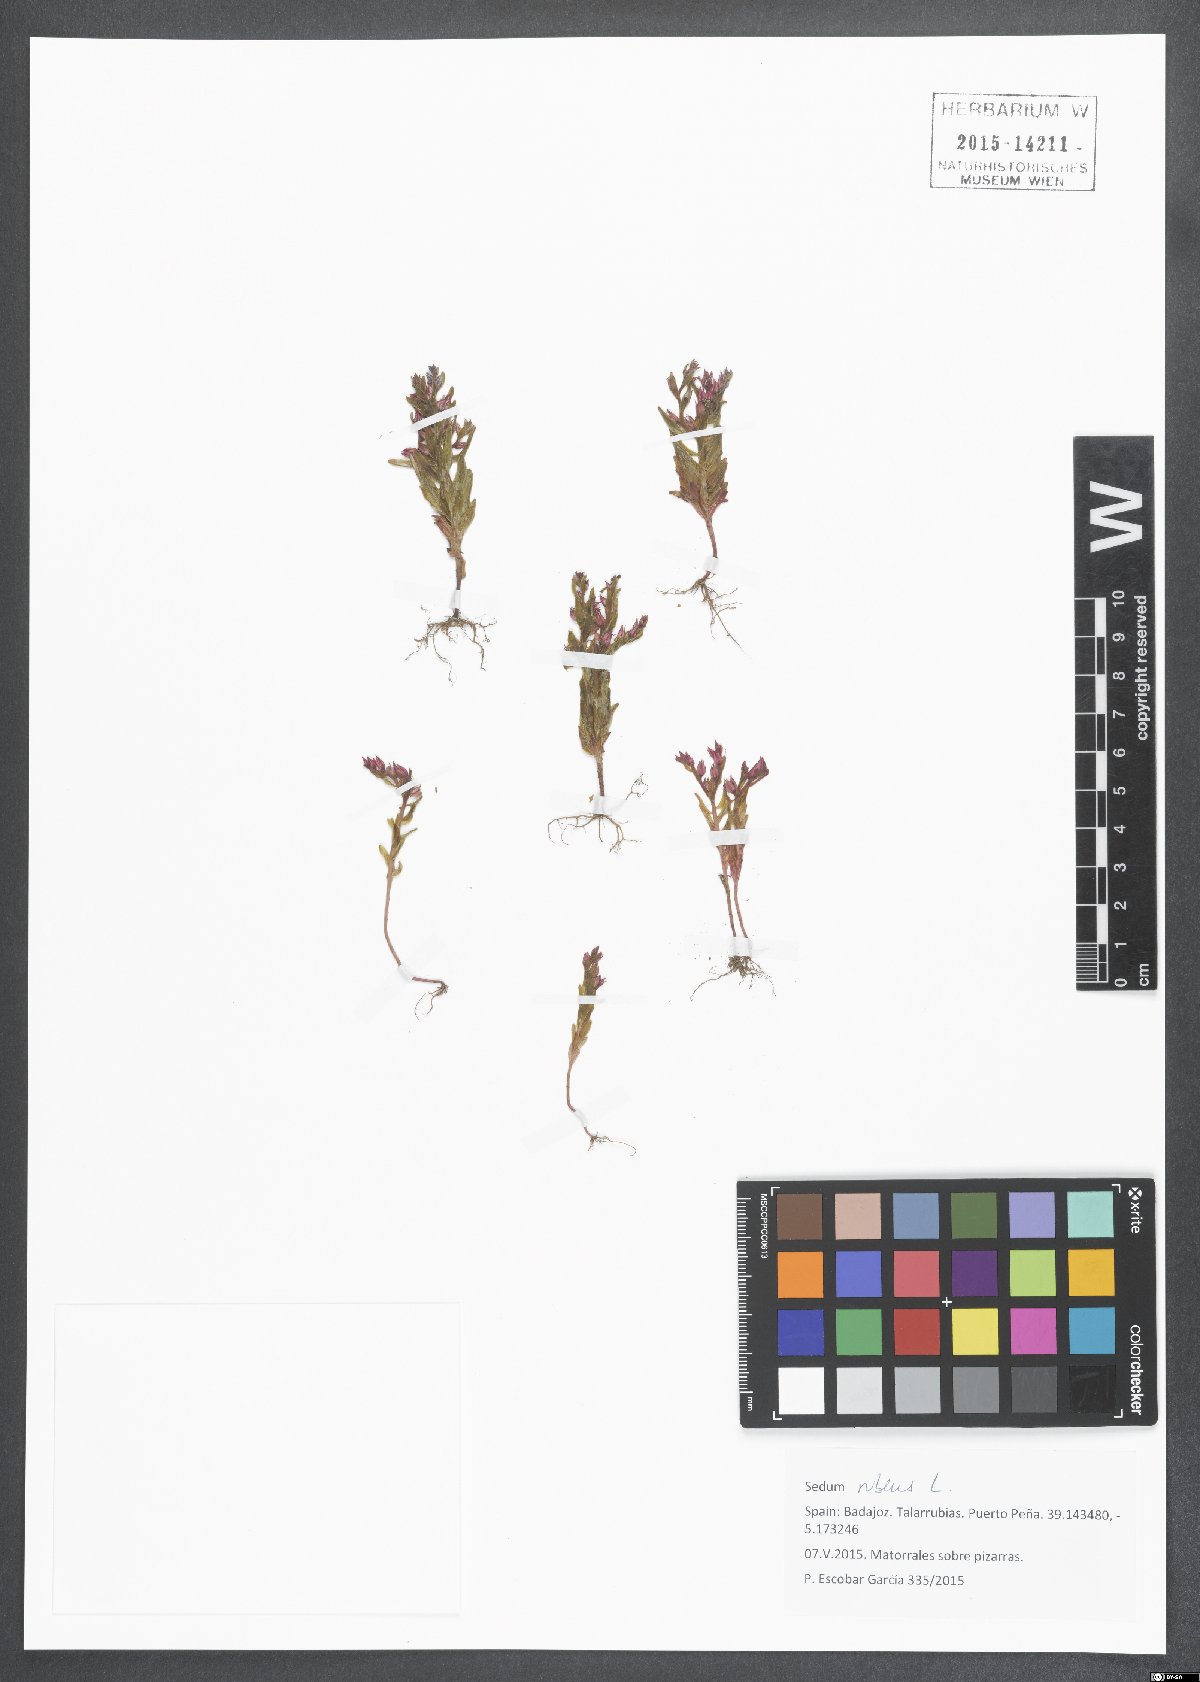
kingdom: Plantae
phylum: Tracheophyta
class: Magnoliopsida
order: Saxifragales
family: Crassulaceae
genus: Sedum
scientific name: Sedum rubens
